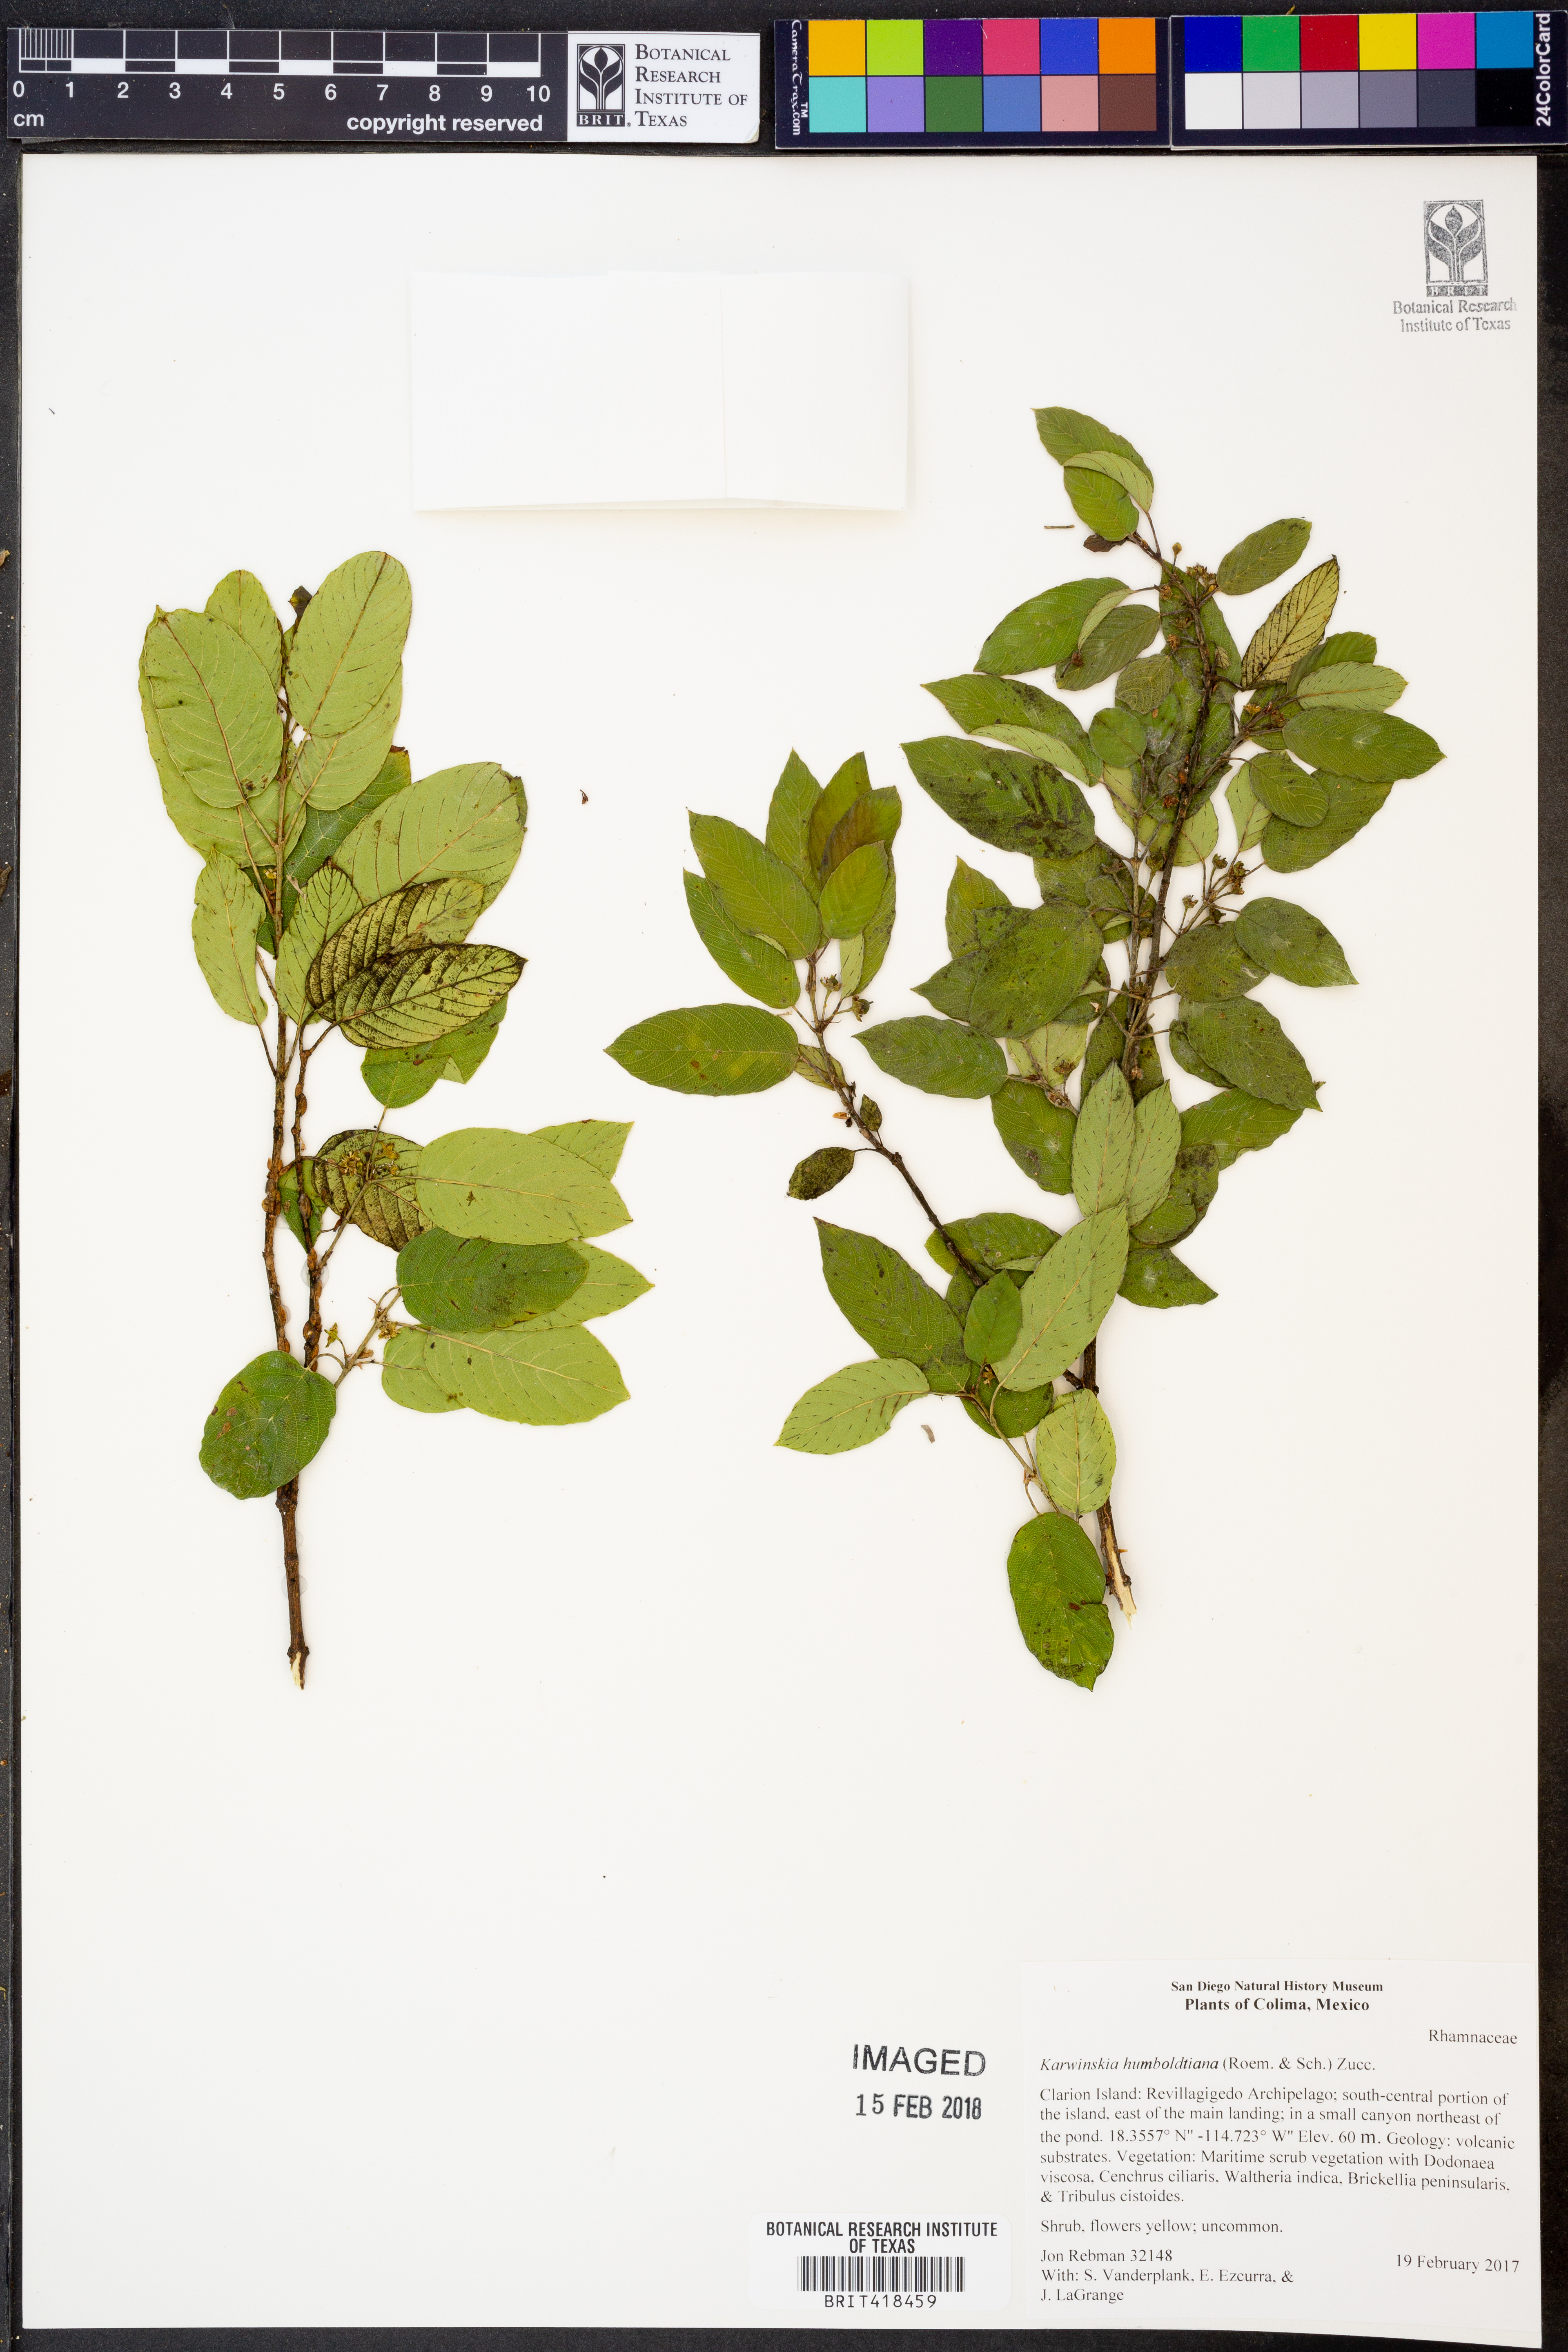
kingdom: Plantae
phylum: Tracheophyta
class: Magnoliopsida
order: Rosales
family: Rhamnaceae
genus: Karwinskia
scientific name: Karwinskia humboldtiana
